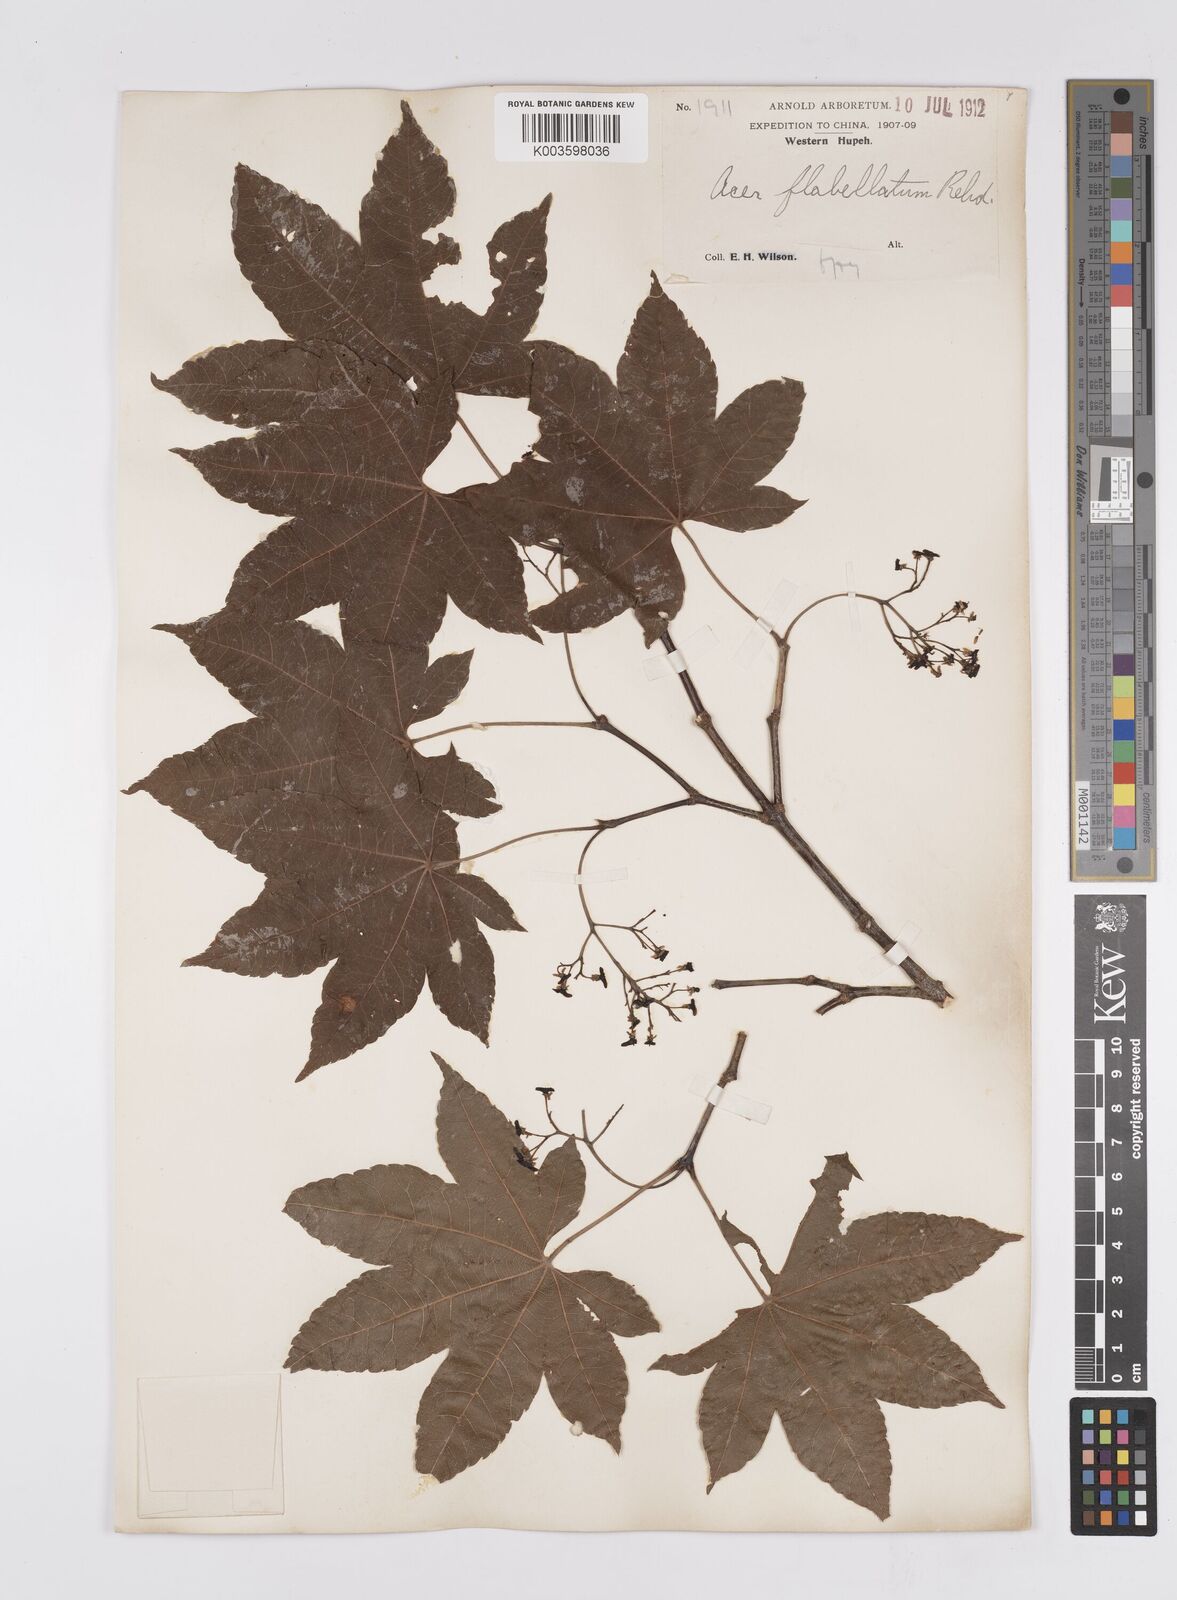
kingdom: Plantae
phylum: Tracheophyta
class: Magnoliopsida
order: Sapindales
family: Sapindaceae
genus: Acer
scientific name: Acer
